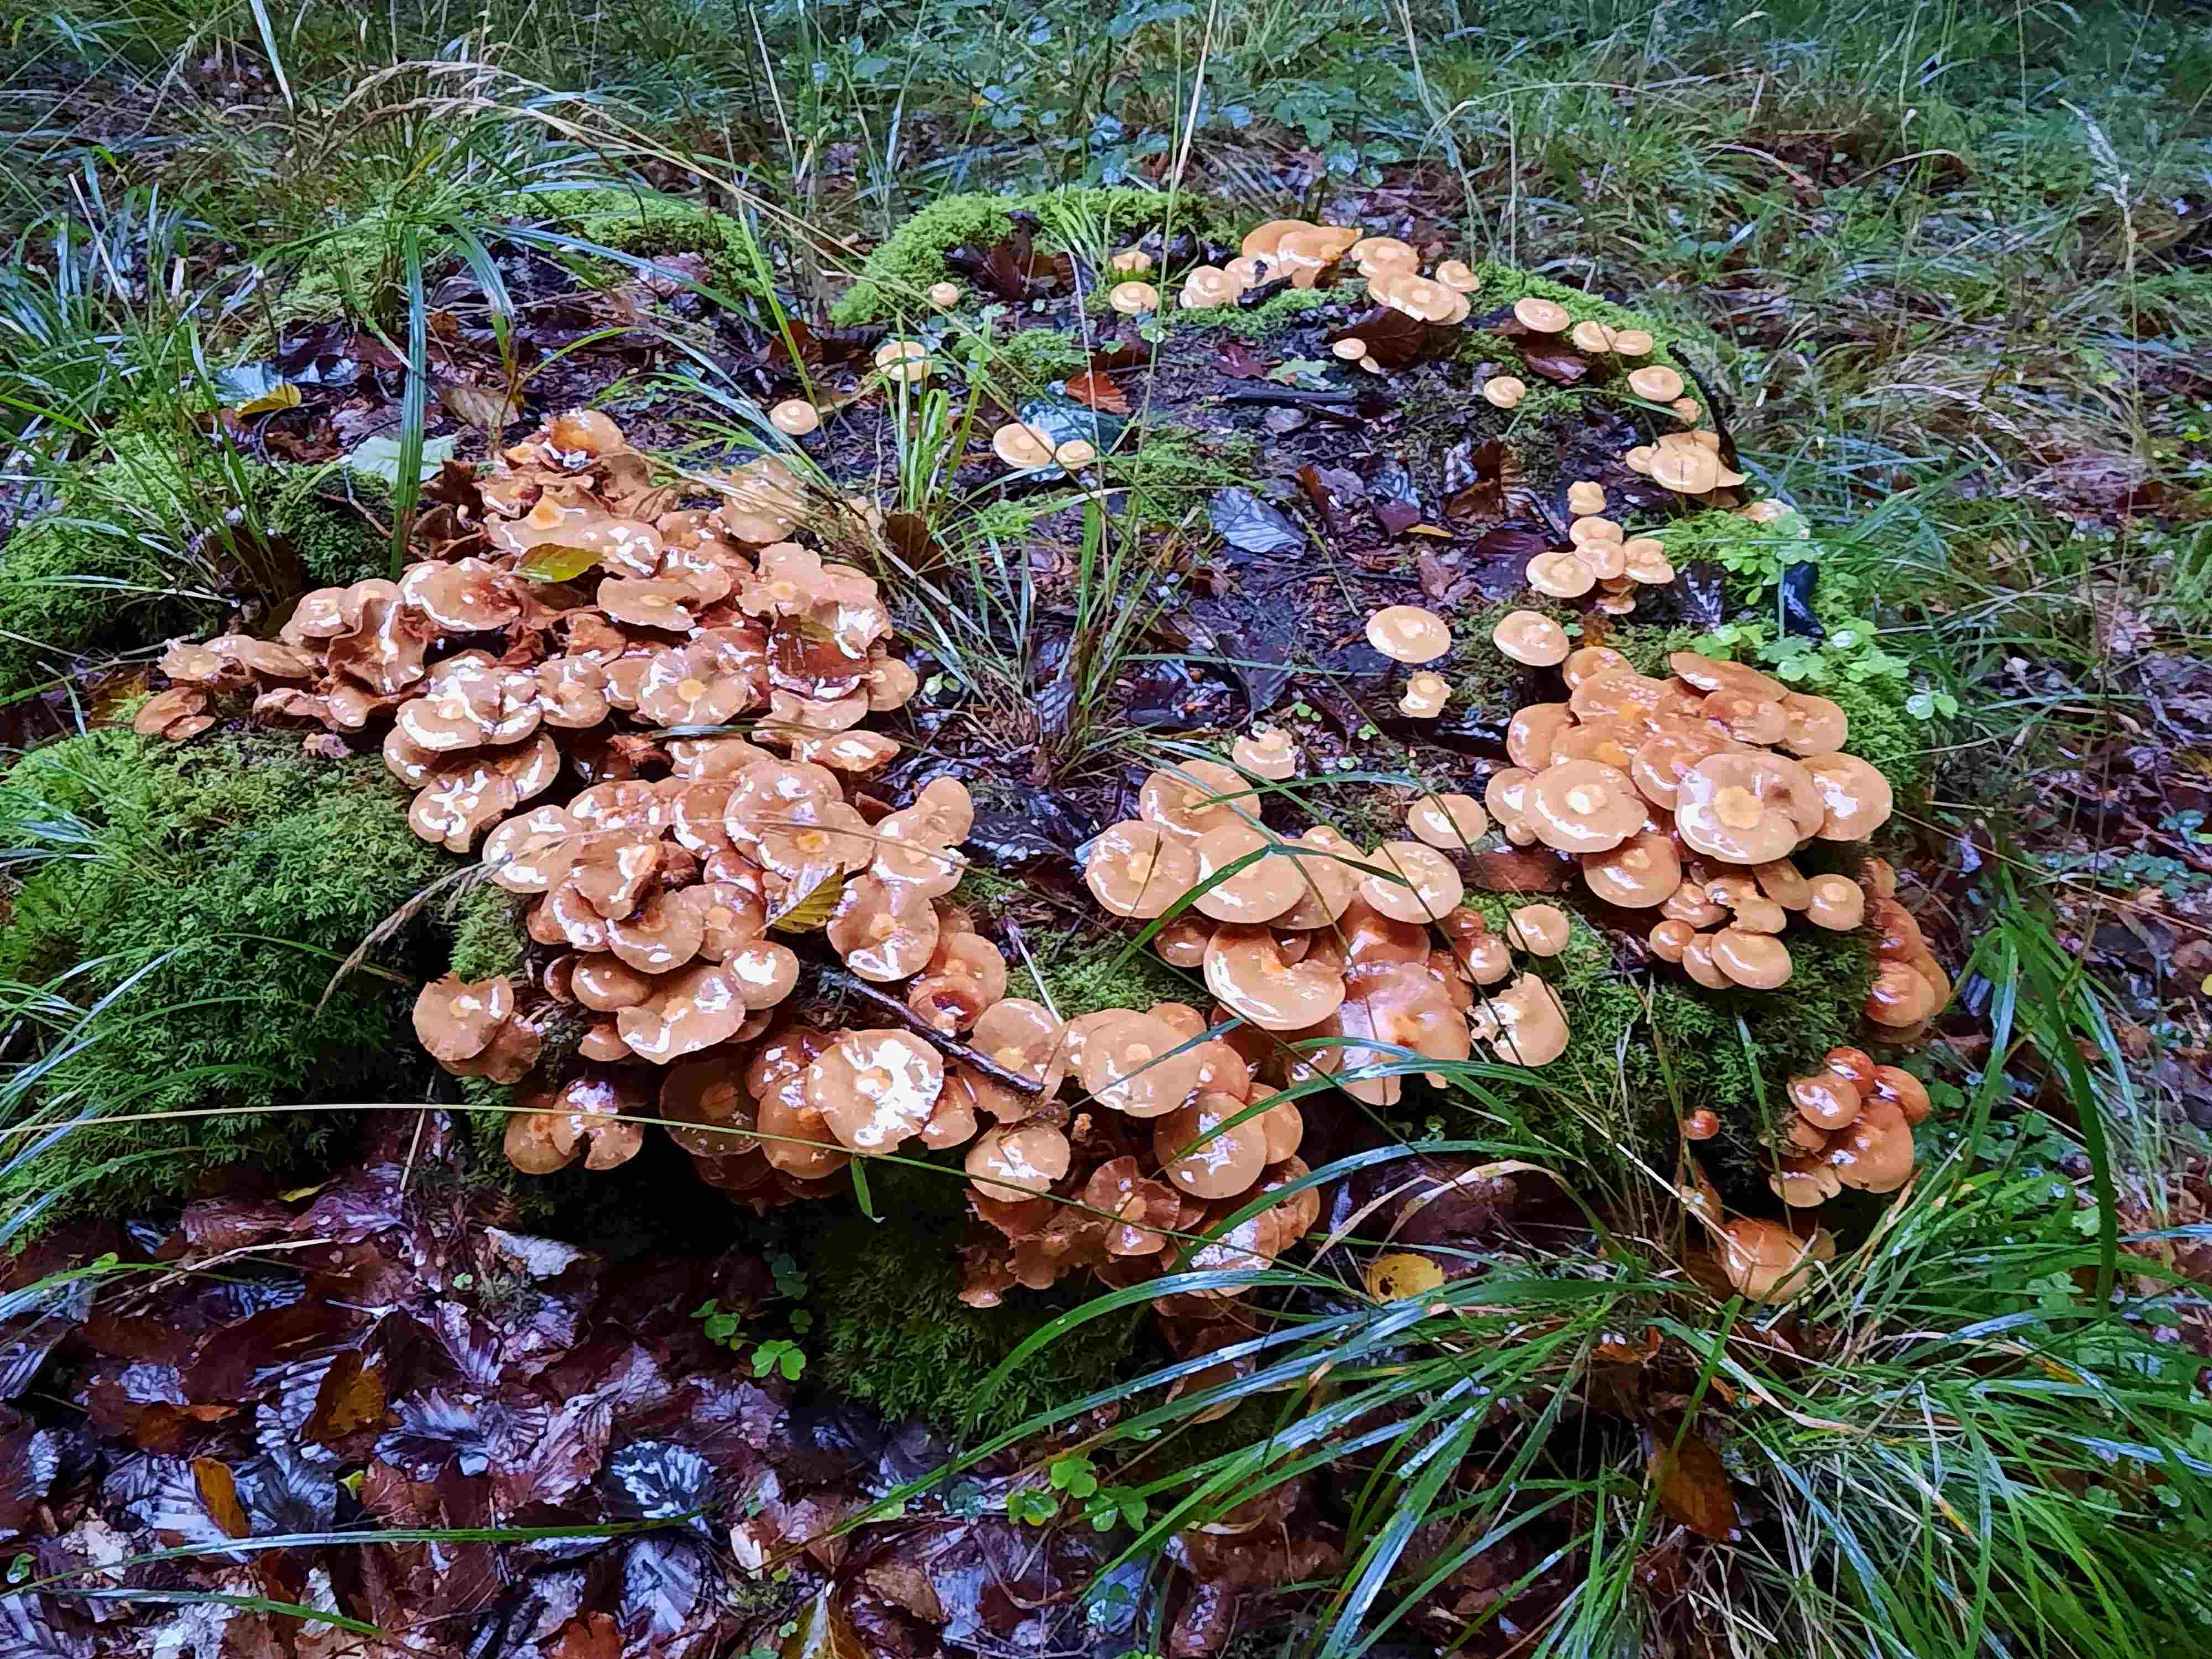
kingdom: Fungi
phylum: Basidiomycota
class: Agaricomycetes
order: Agaricales
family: Strophariaceae
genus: Kuehneromyces
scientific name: Kuehneromyces mutabilis
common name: foranderlig skælhat
